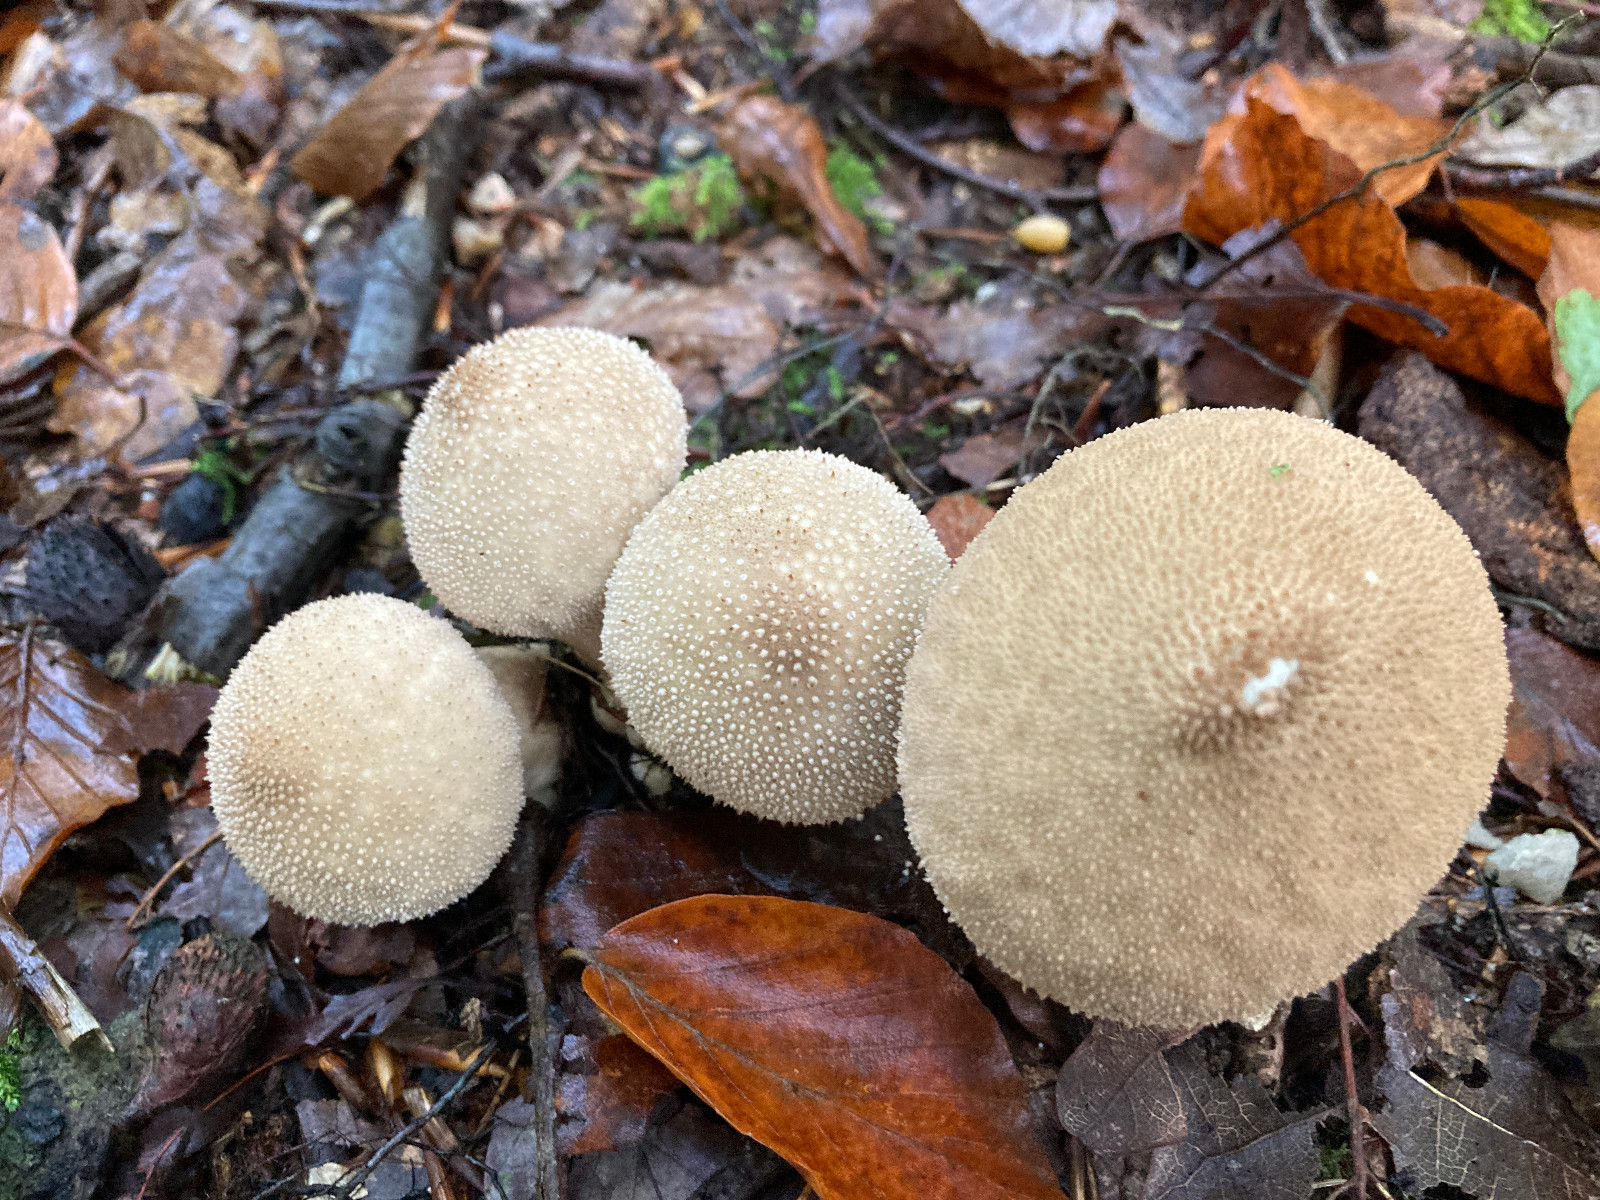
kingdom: Fungi
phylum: Basidiomycota
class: Agaricomycetes
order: Agaricales
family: Lycoperdaceae
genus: Lycoperdon
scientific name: Lycoperdon perlatum
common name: krystal-støvbold
